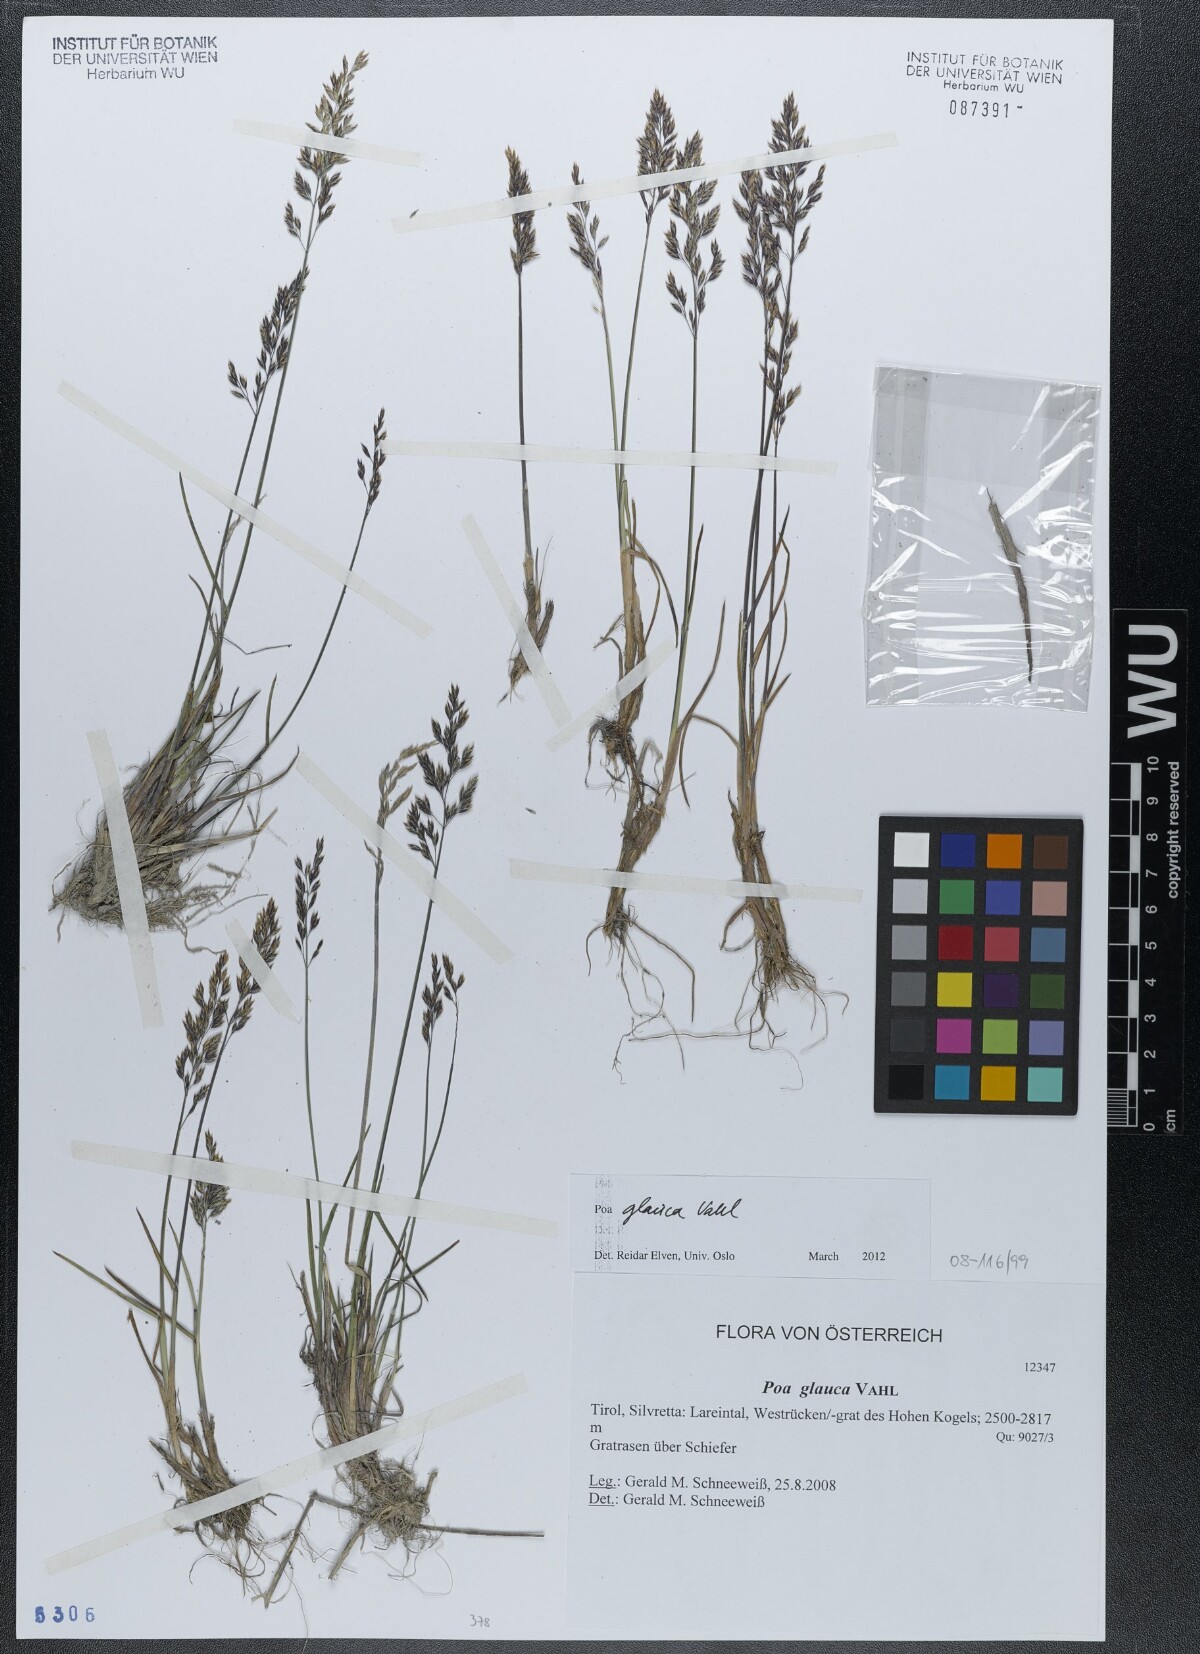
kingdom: Plantae
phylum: Tracheophyta
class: Liliopsida
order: Poales
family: Poaceae
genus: Poa
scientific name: Poa glauca
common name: Glaucous bluegrass
